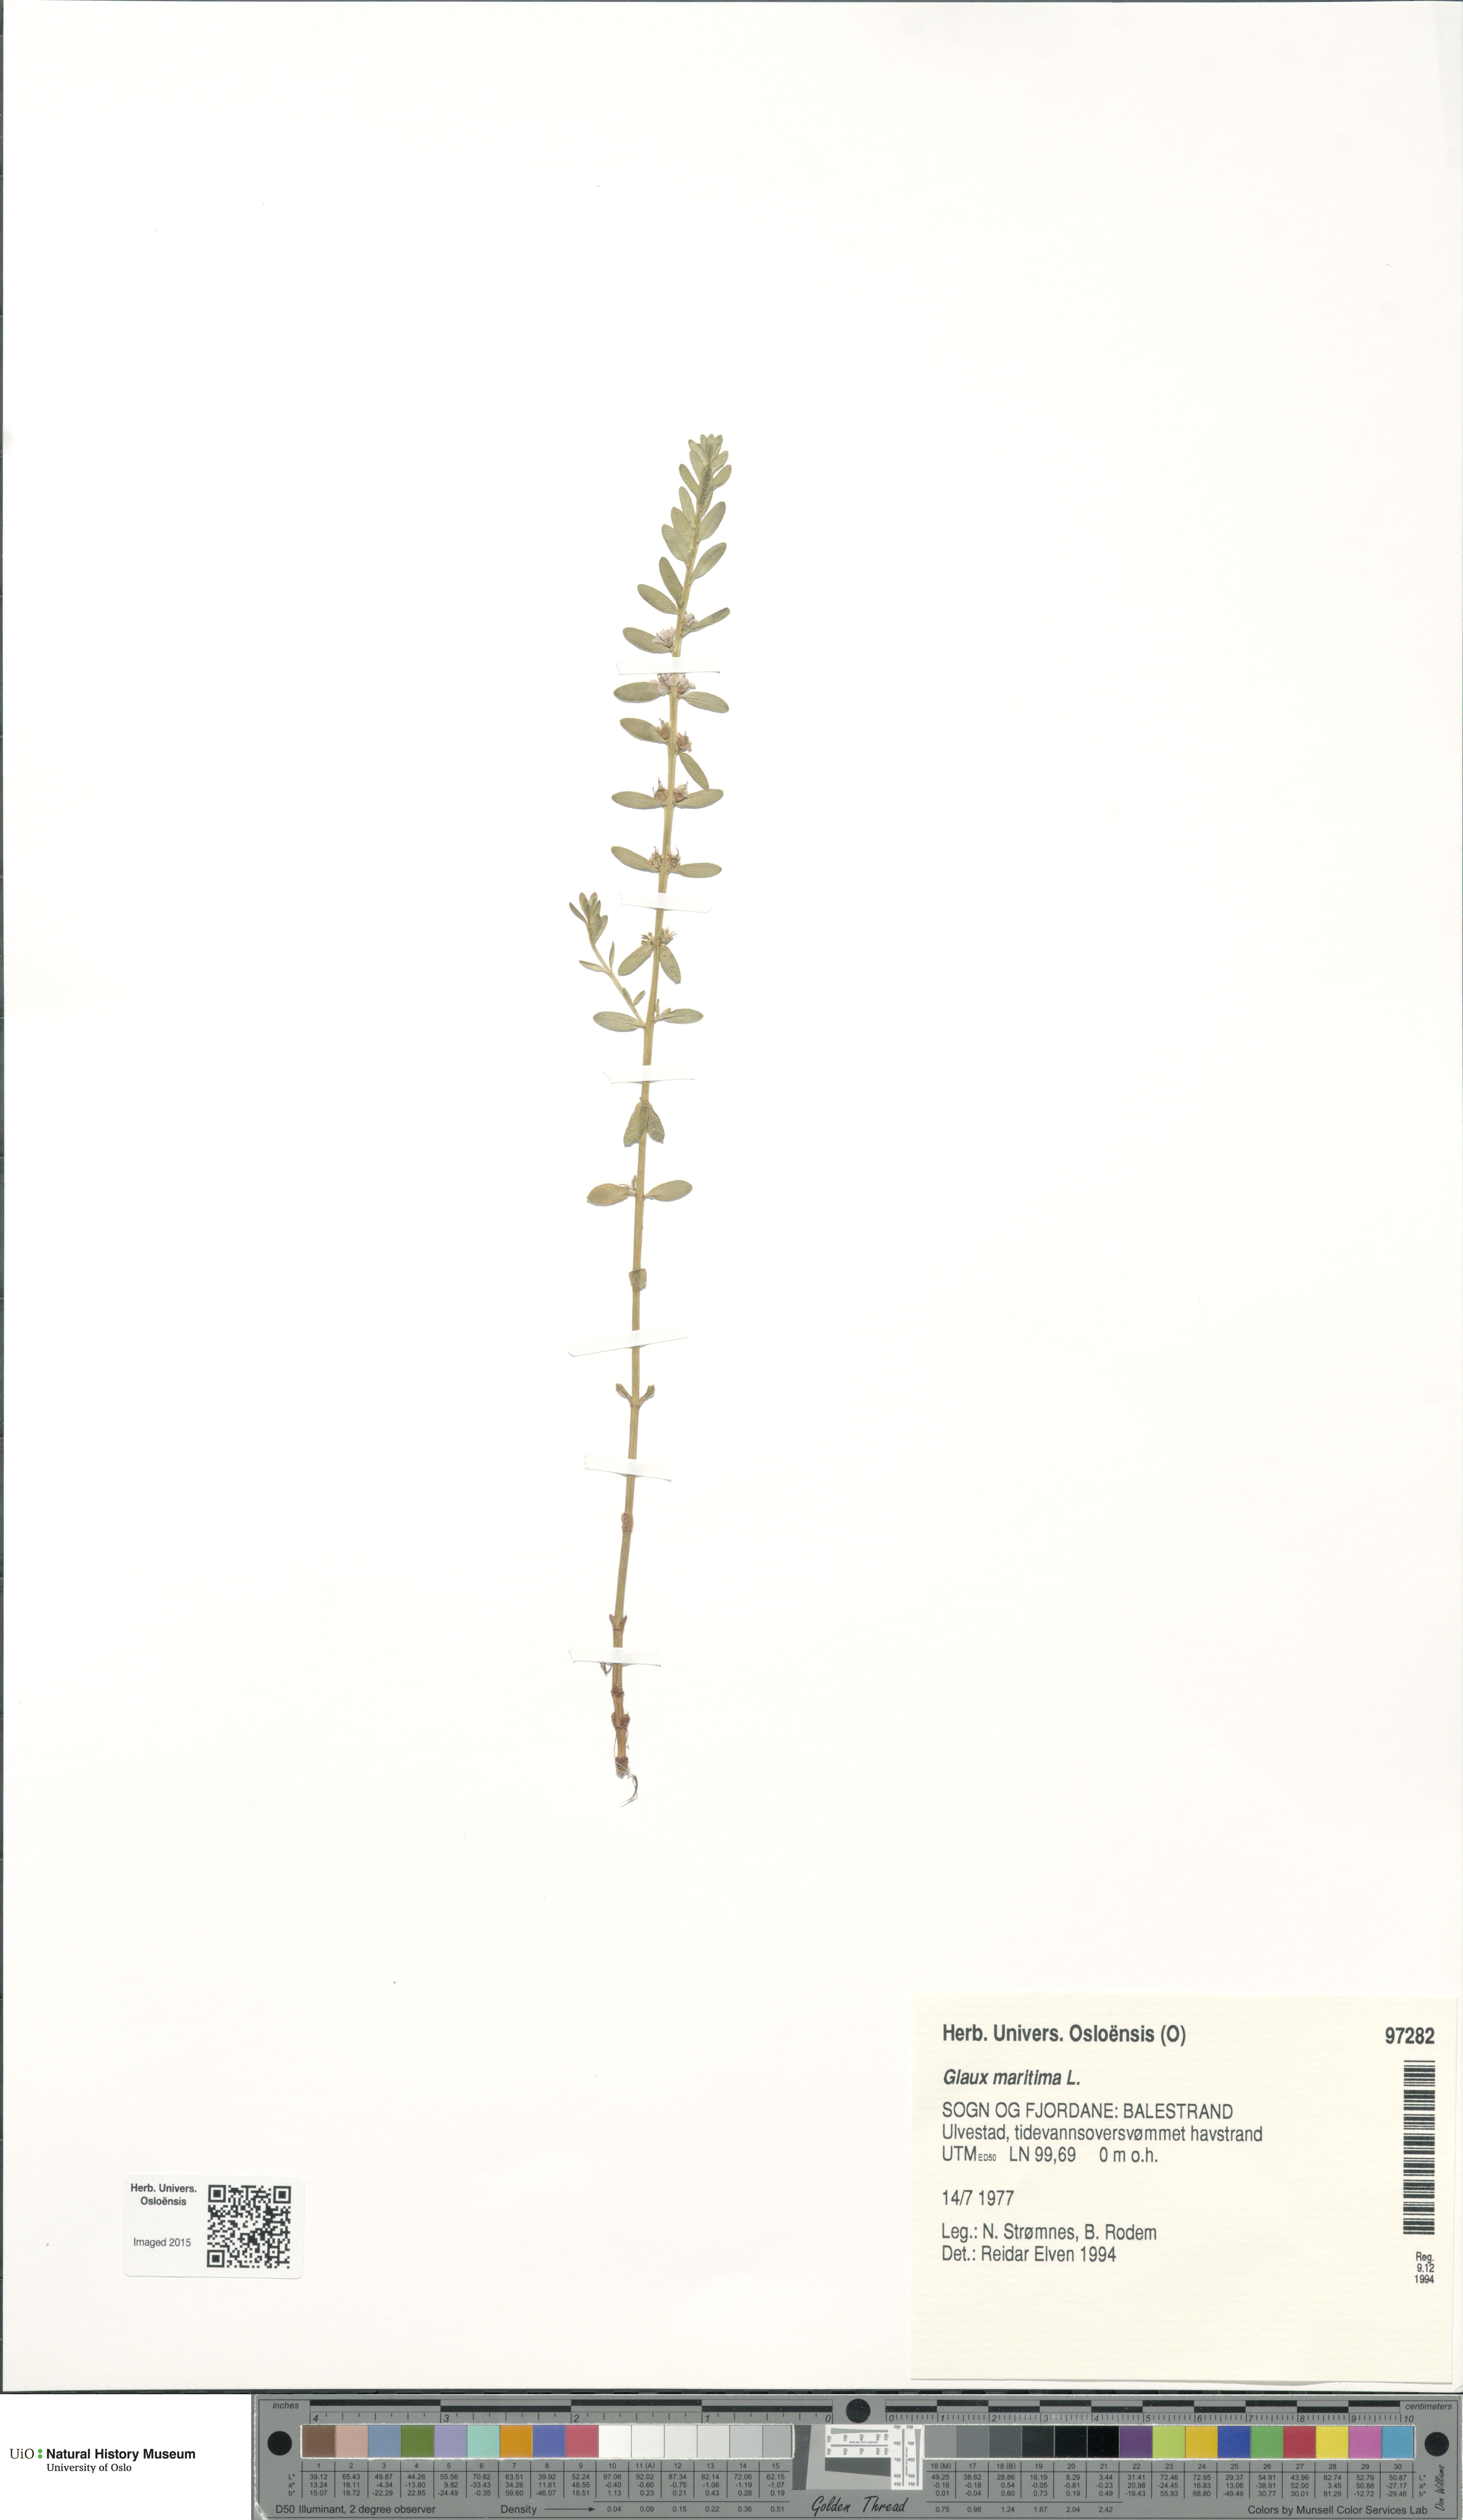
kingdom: Plantae
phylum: Tracheophyta
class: Magnoliopsida
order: Ericales
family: Primulaceae
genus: Lysimachia
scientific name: Lysimachia maritima
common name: Sea milkwort
